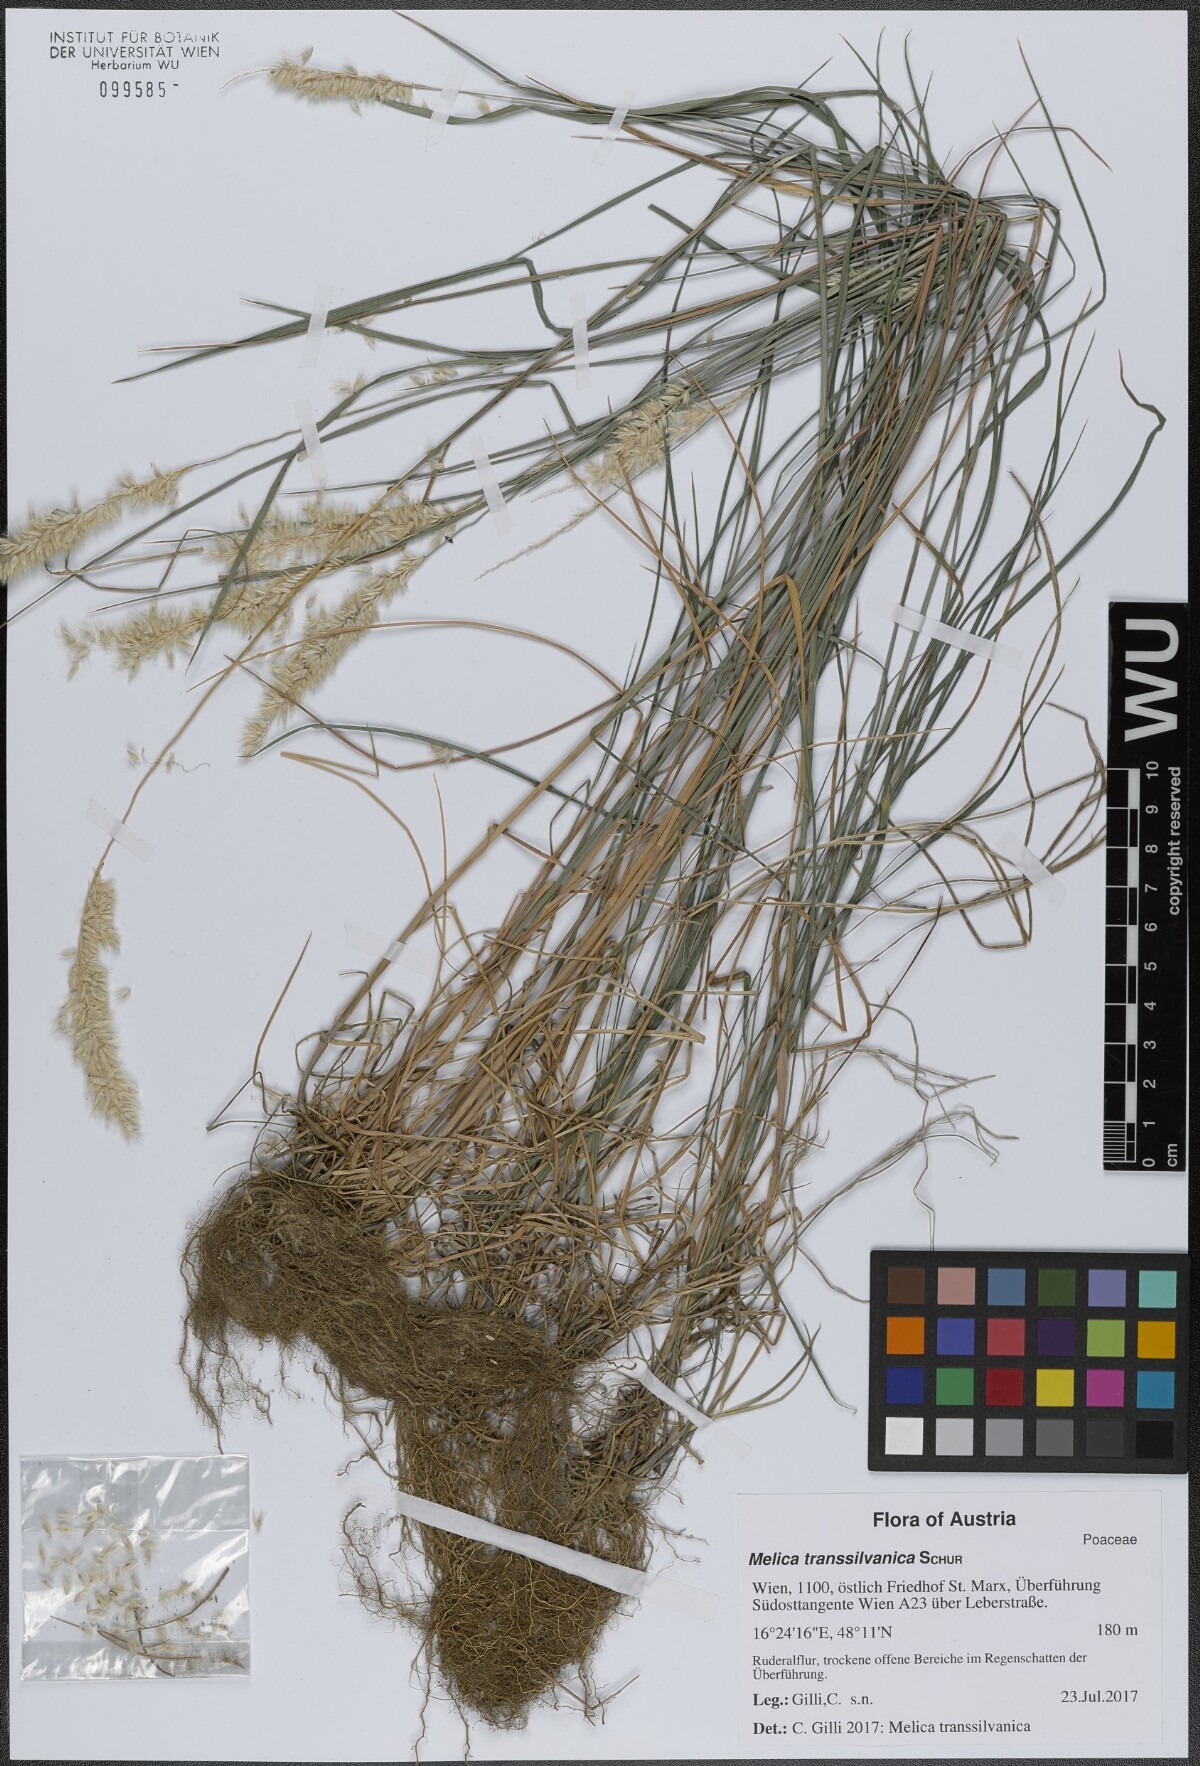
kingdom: Plantae
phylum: Tracheophyta
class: Liliopsida
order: Poales
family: Poaceae
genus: Melica
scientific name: Melica transsilvanica
